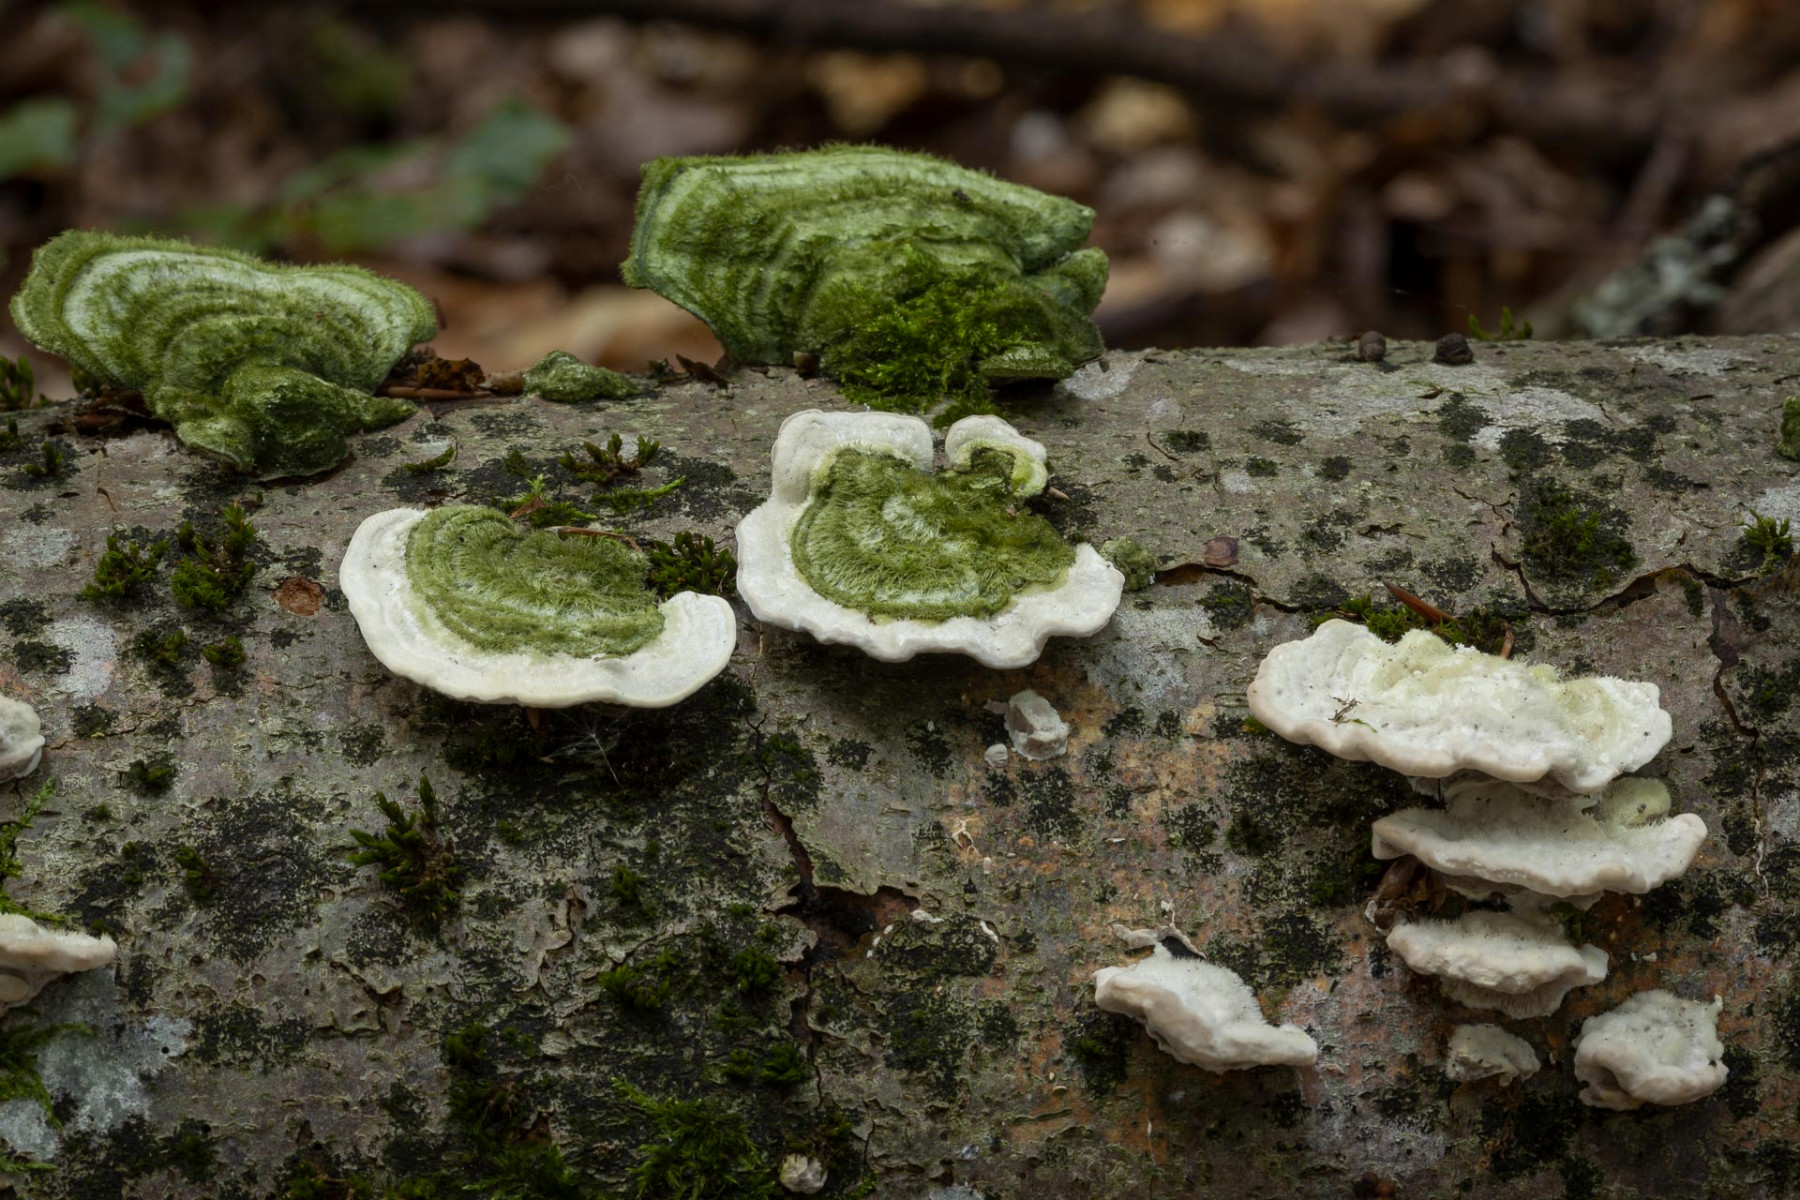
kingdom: Fungi
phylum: Basidiomycota
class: Agaricomycetes
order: Polyporales
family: Polyporaceae
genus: Trametes
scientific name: Trametes hirsuta
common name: håret læderporesvamp
